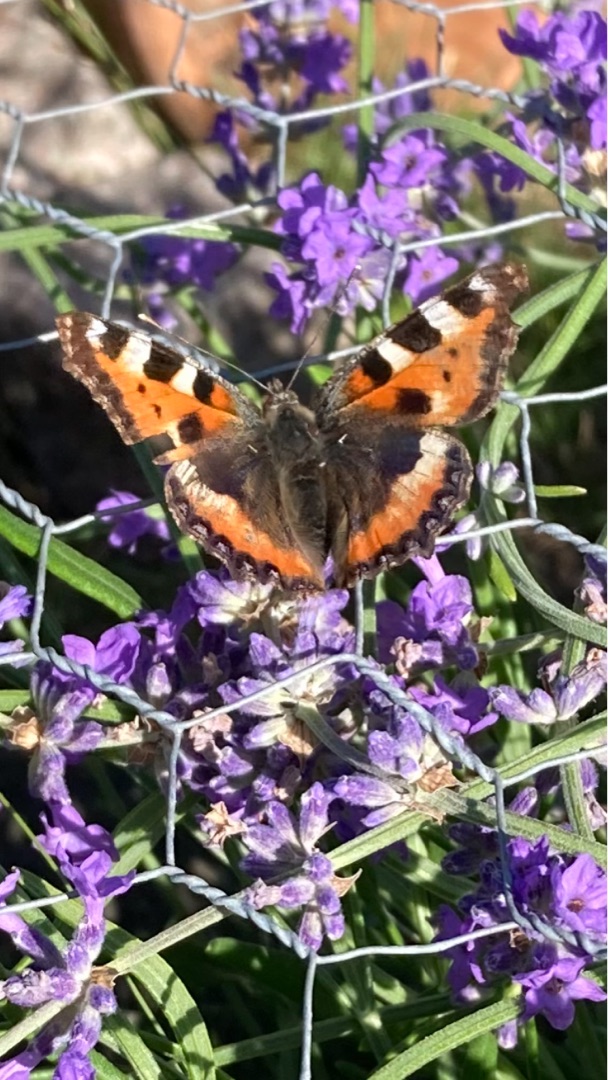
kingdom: Animalia
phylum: Arthropoda
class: Insecta
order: Lepidoptera
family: Nymphalidae
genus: Aglais
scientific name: Aglais urticae
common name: Nældens takvinge
